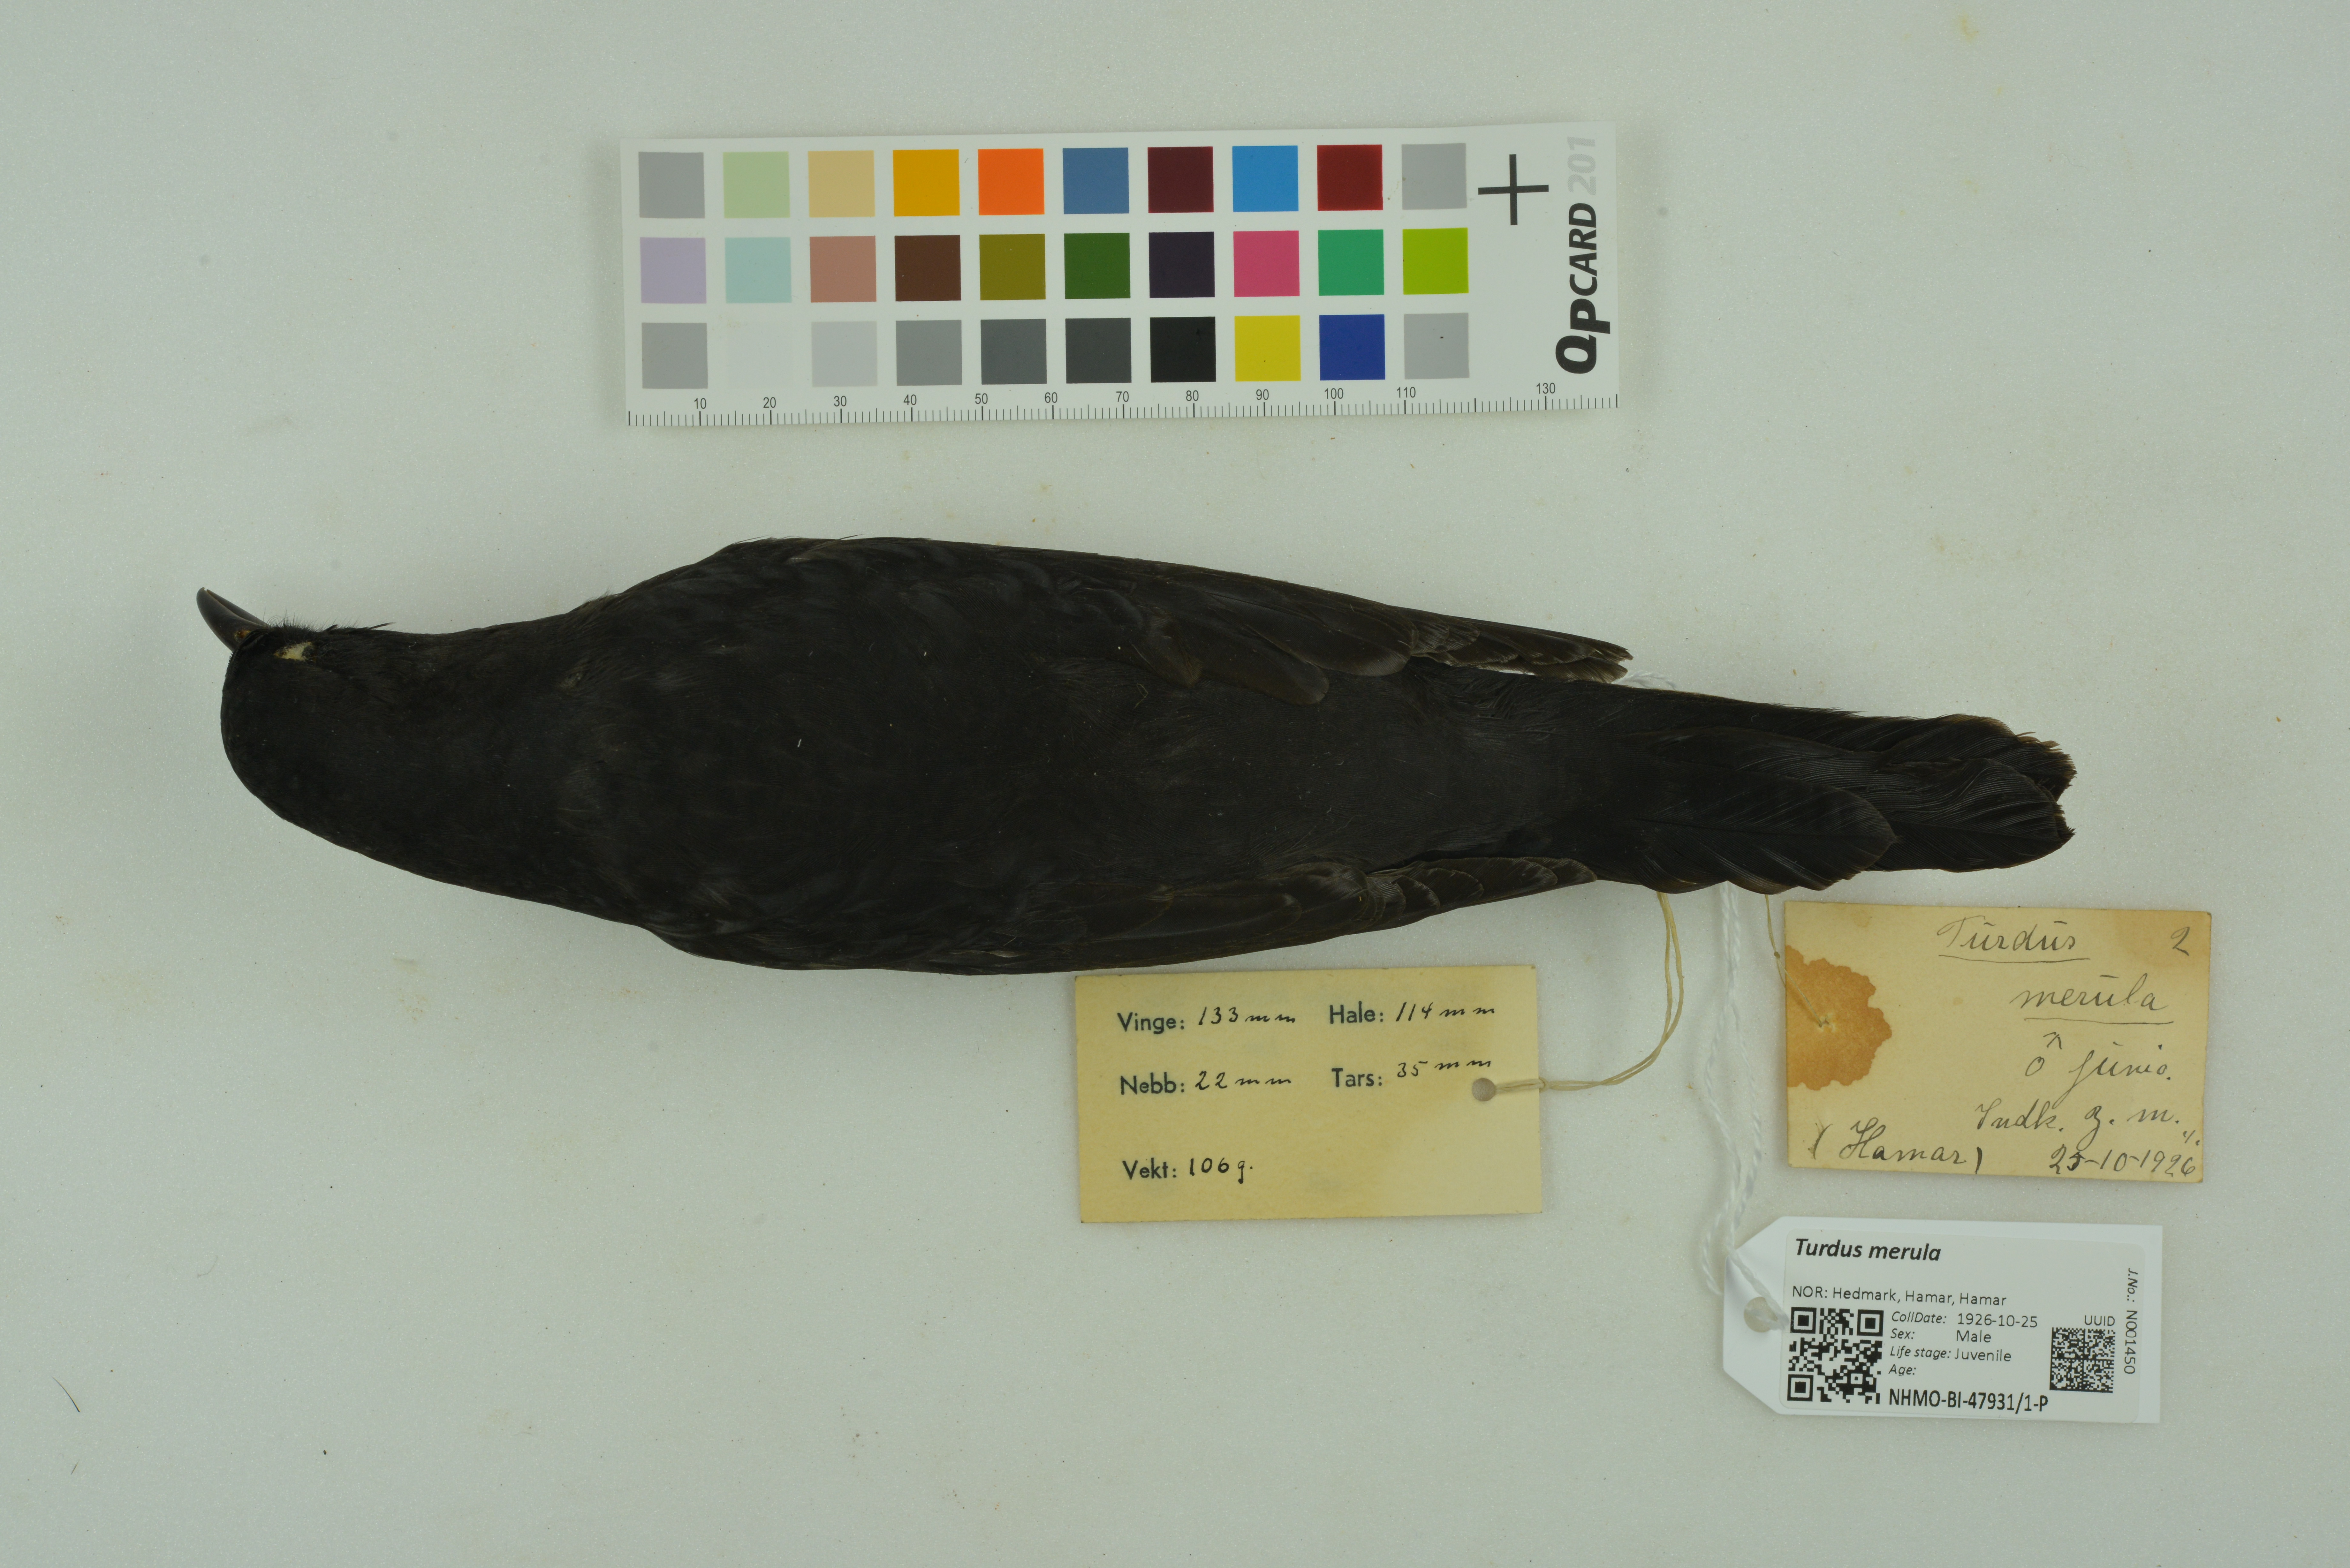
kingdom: Animalia
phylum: Chordata
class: Aves
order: Passeriformes
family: Turdidae
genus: Turdus
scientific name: Turdus merula
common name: Common blackbird
